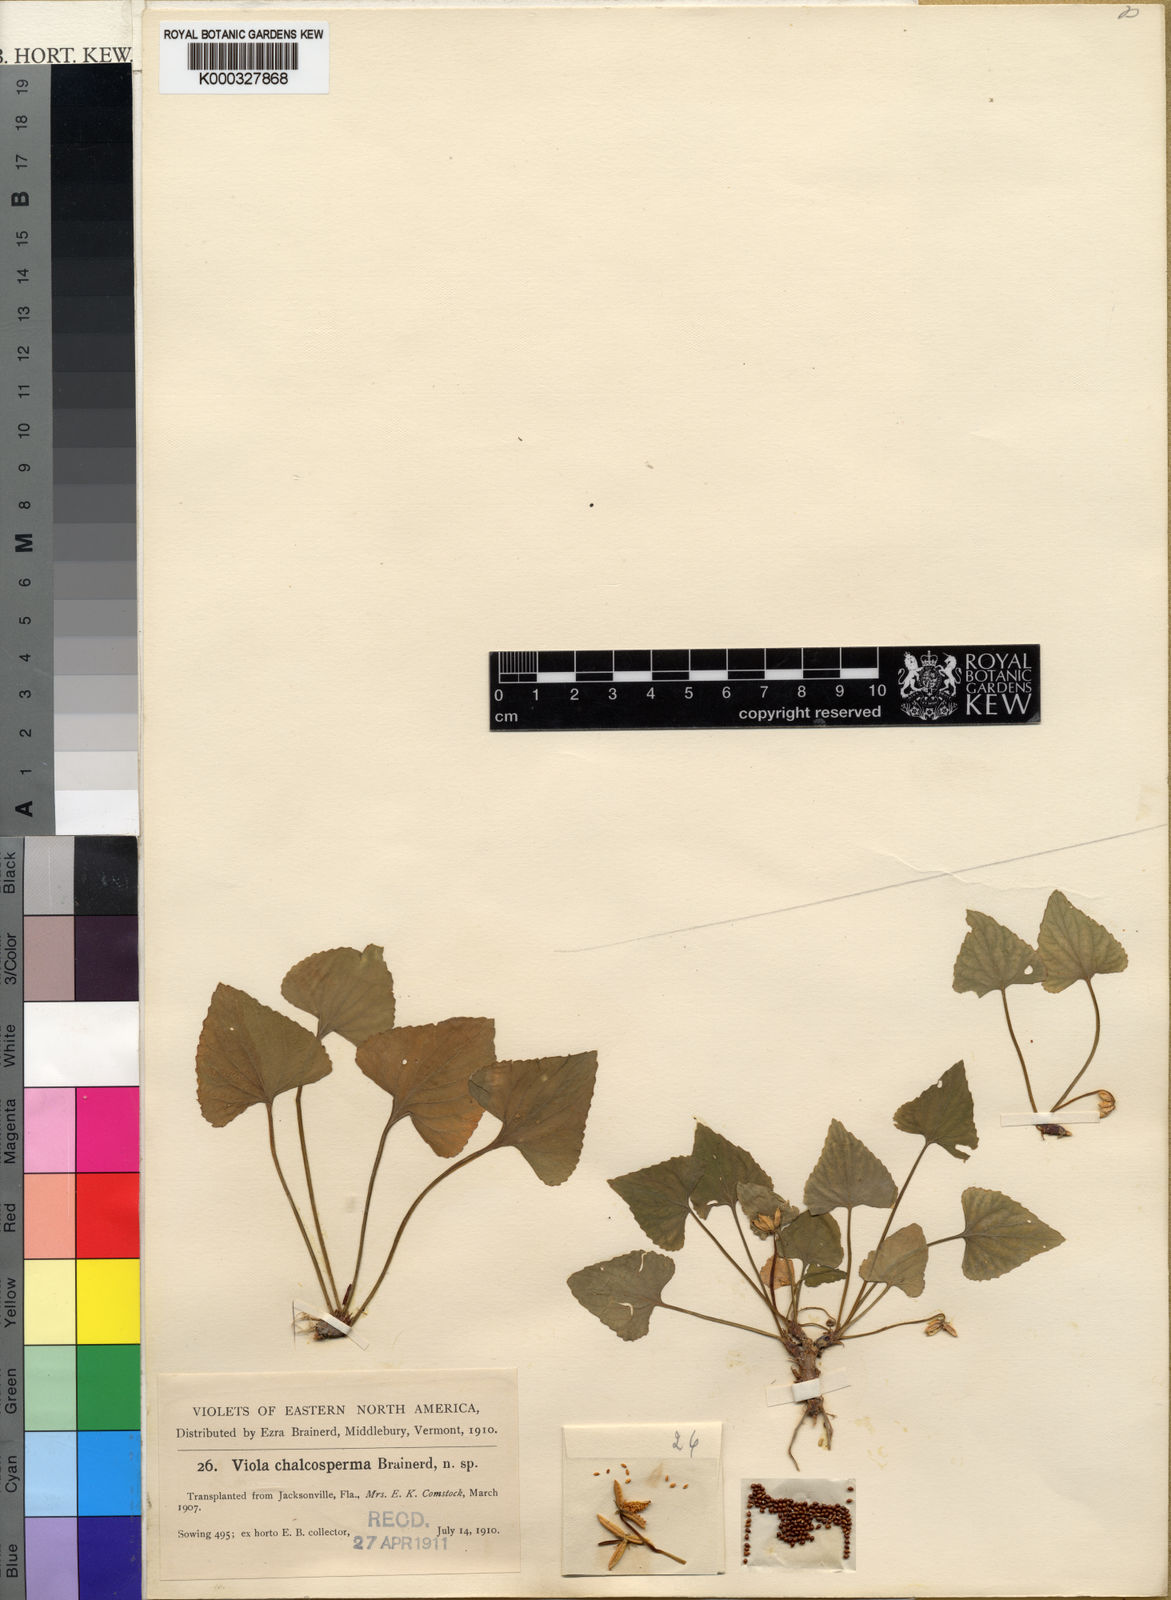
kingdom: Plantae
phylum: Tracheophyta
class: Magnoliopsida
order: Malpighiales
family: Violaceae
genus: Viola
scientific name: Viola chalcosperma
